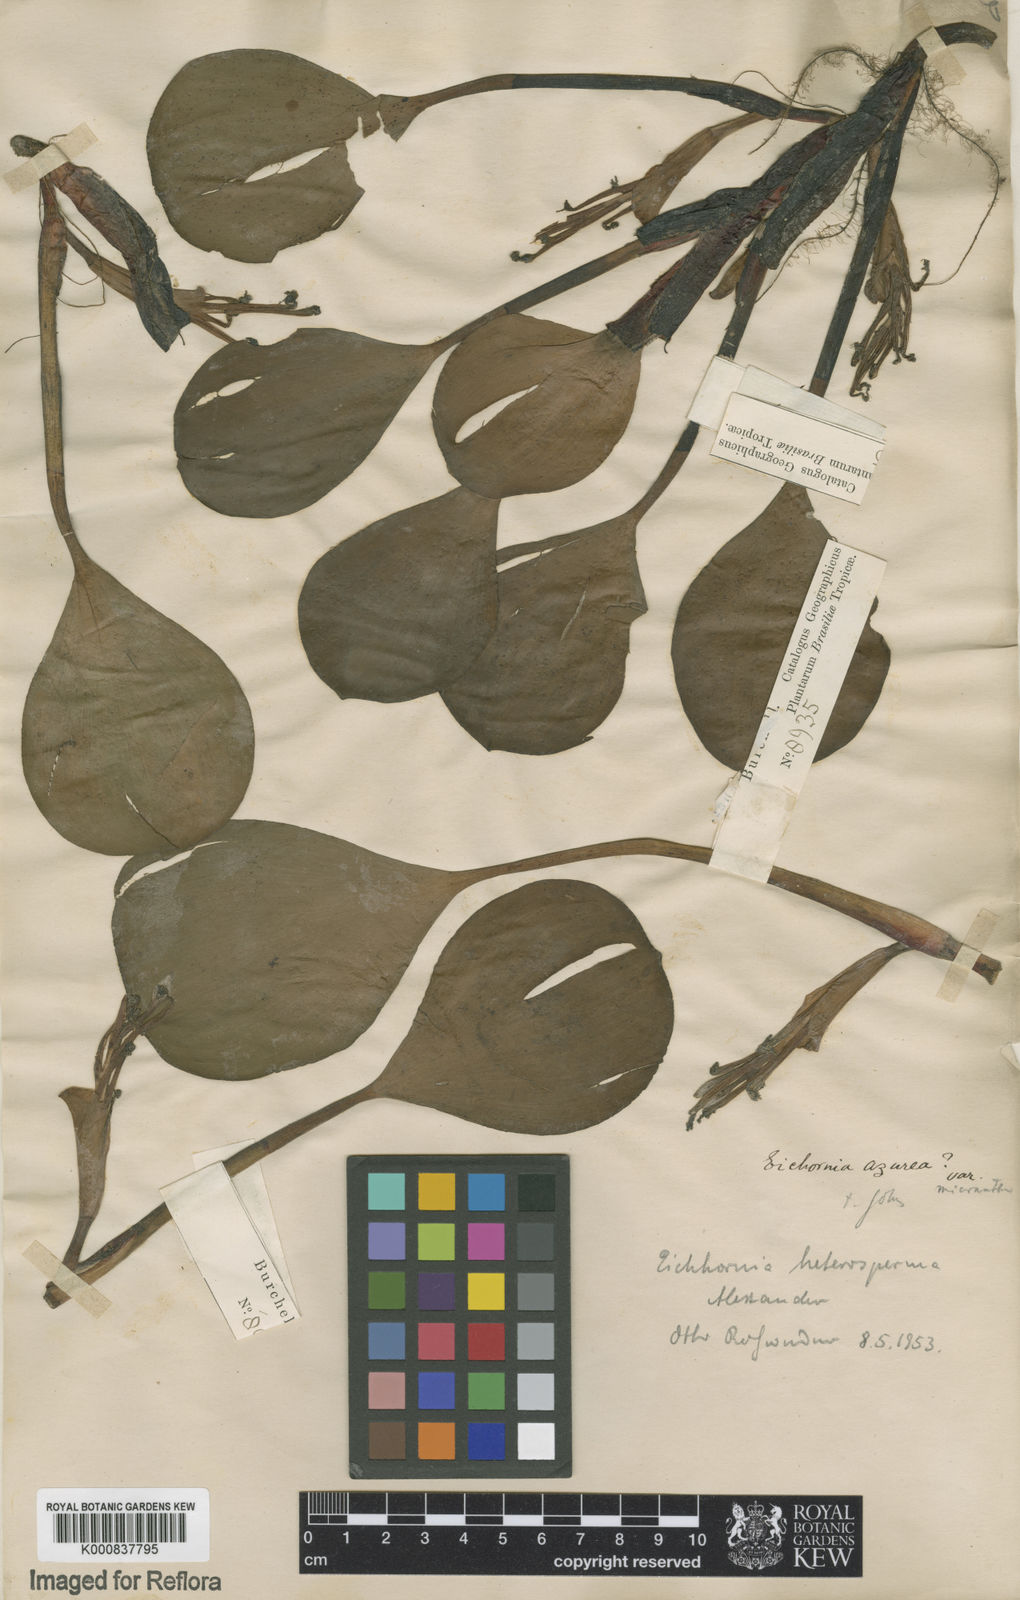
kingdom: Plantae
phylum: Tracheophyta
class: Liliopsida
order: Commelinales
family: Pontederiaceae
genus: Pontederia
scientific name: Pontederia heterosperma
